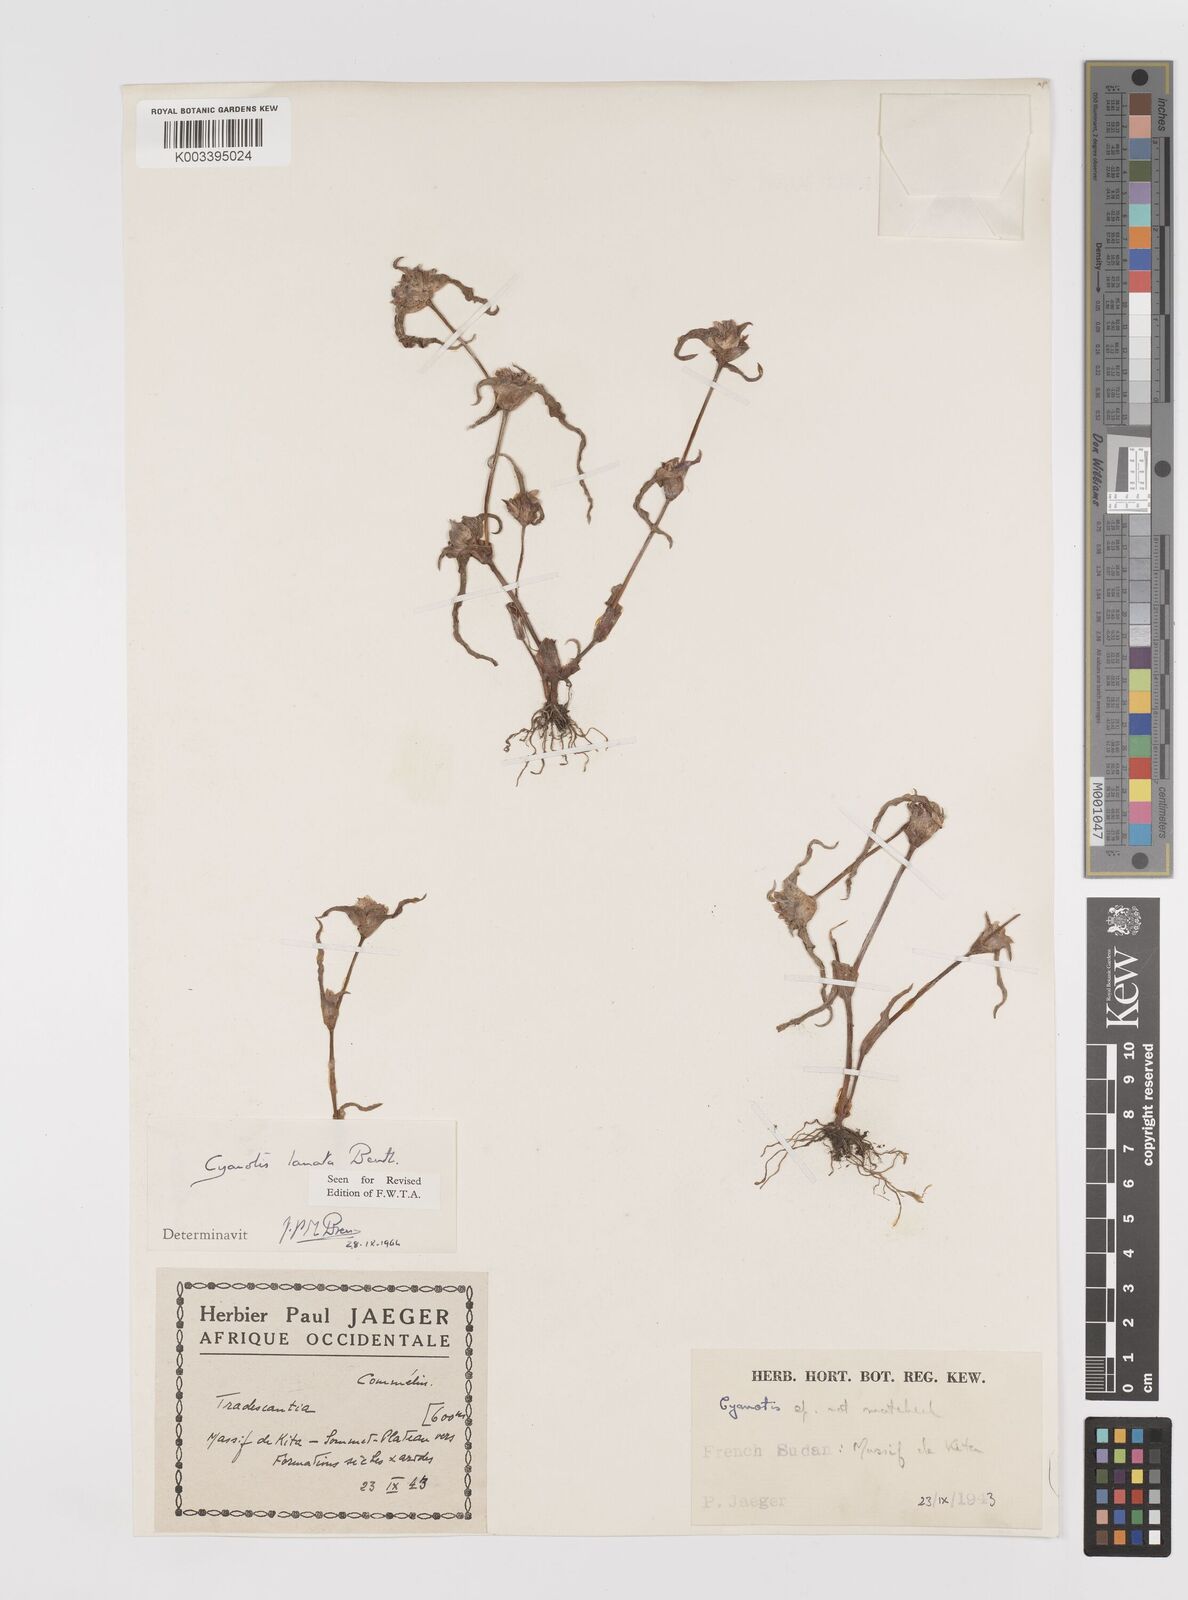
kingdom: Plantae
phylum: Tracheophyta
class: Liliopsida
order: Commelinales
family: Commelinaceae
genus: Cyanotis
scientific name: Cyanotis lanata
